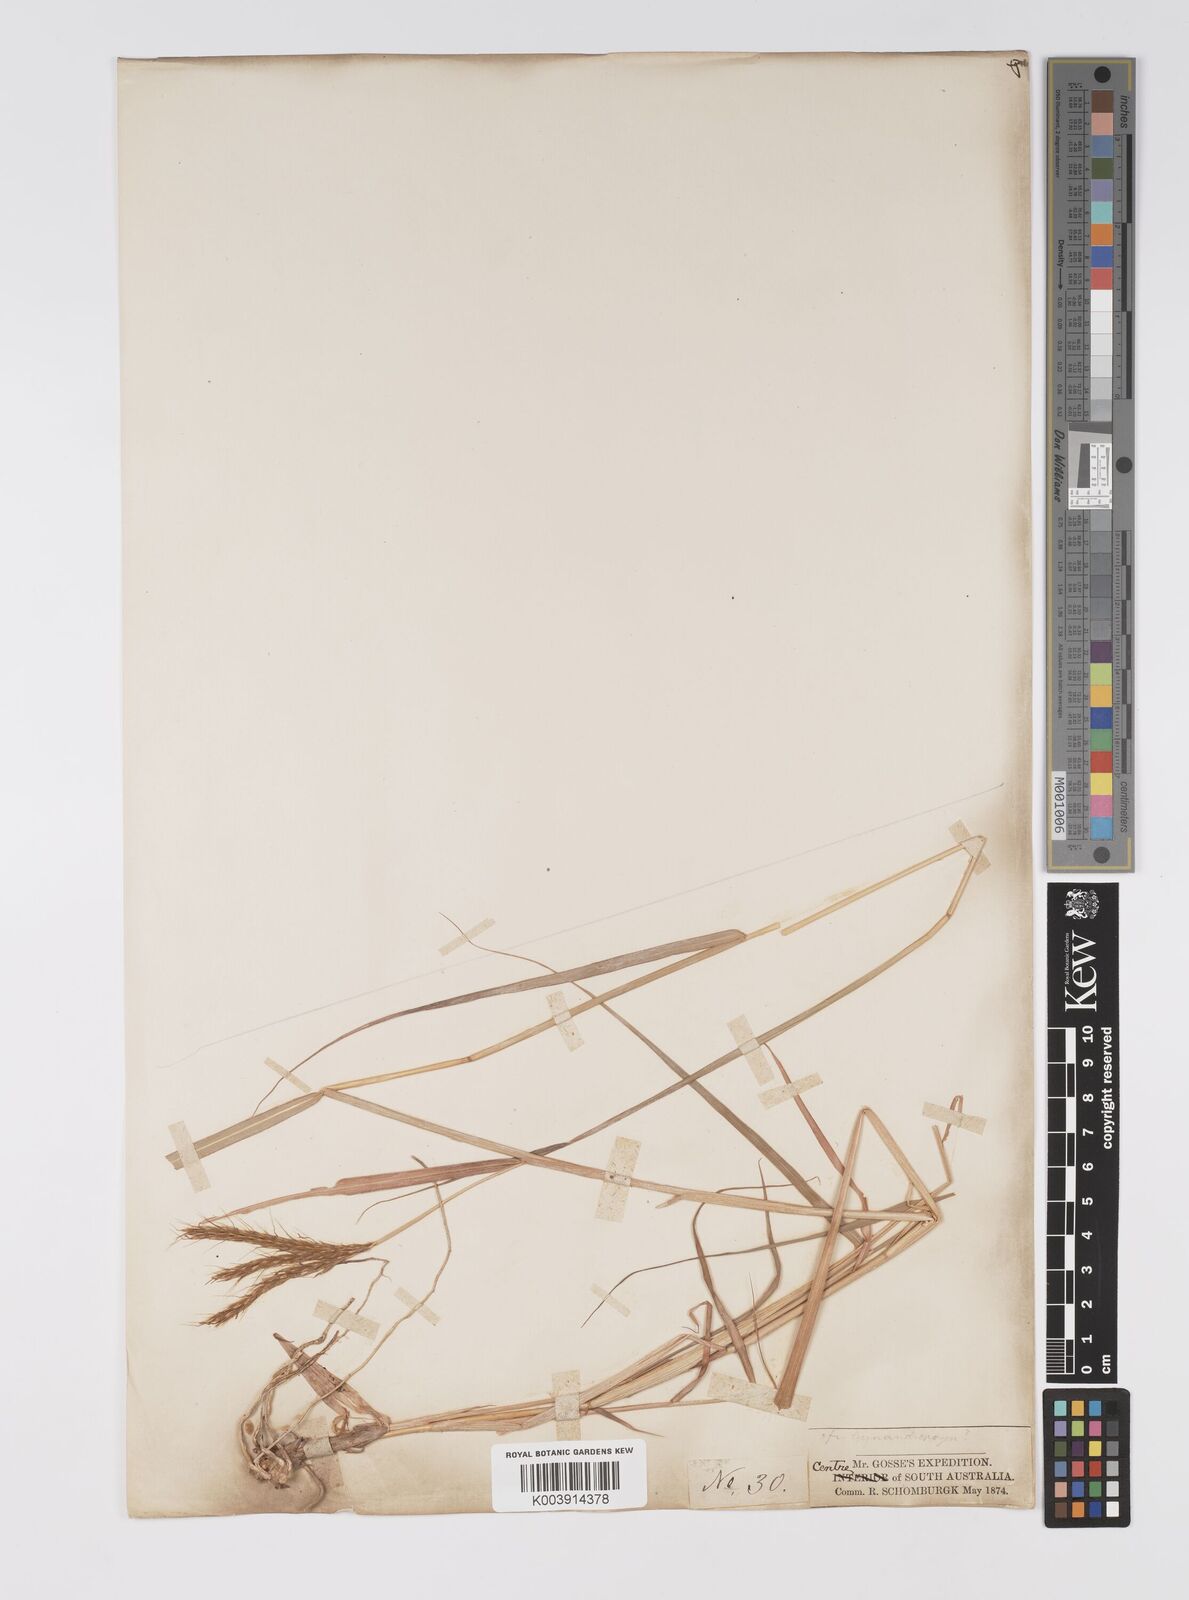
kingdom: Plantae
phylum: Tracheophyta
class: Liliopsida
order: Poales
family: Poaceae
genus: Eulalia
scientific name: Eulalia aurea
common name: Silky browntop
